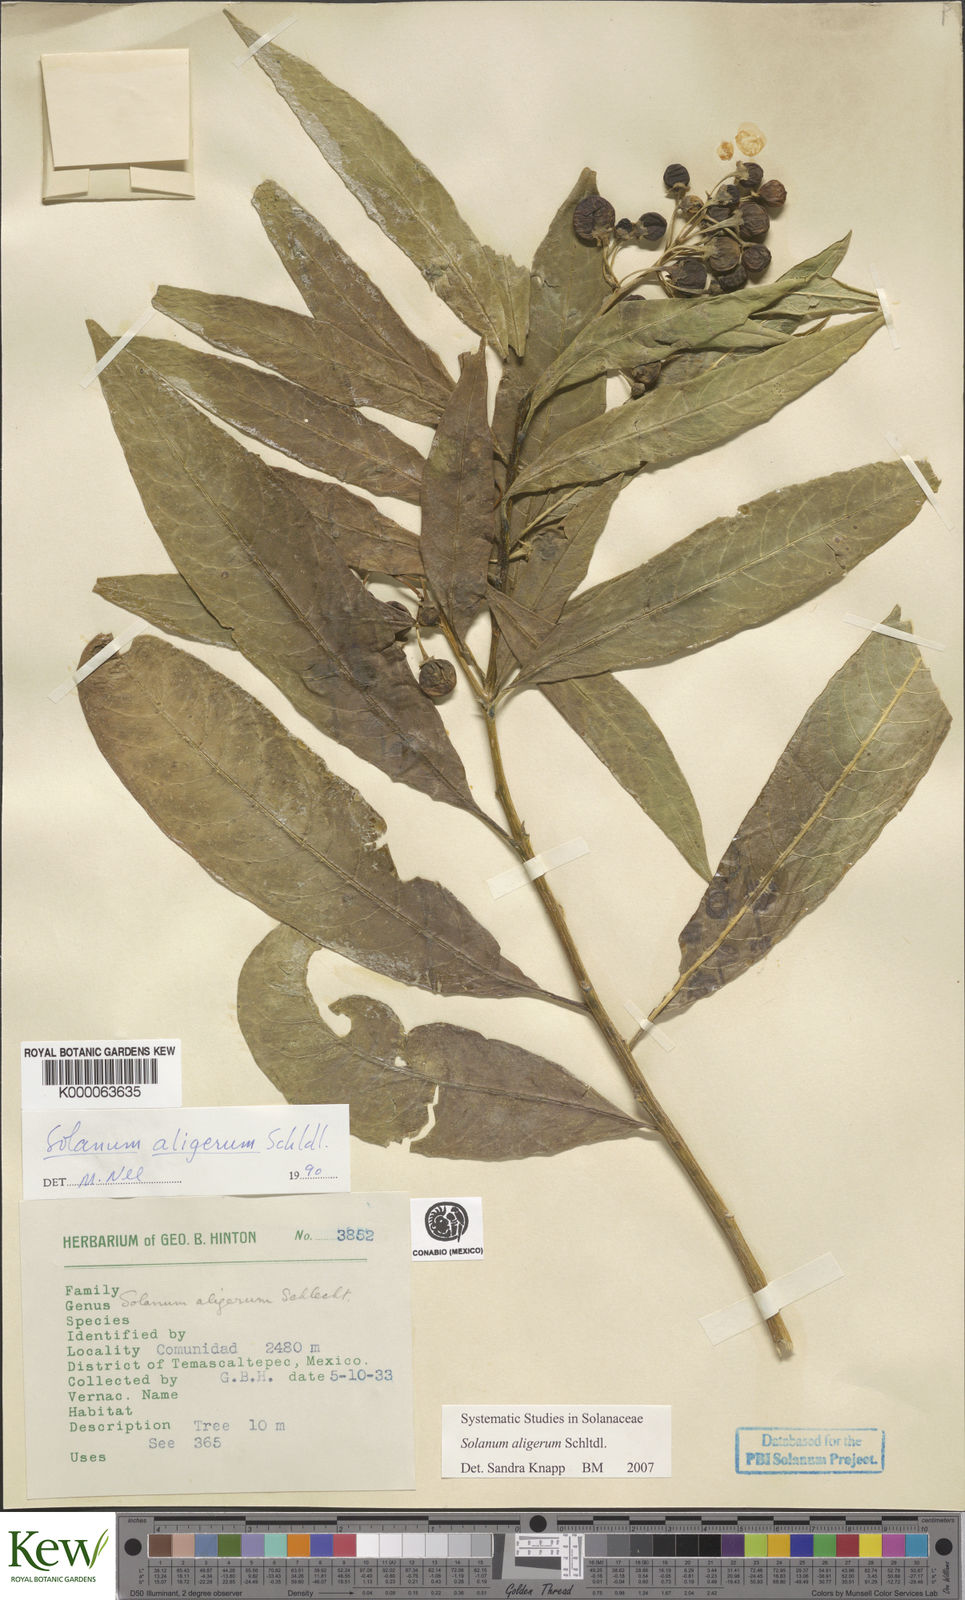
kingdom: Plantae
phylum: Tracheophyta
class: Magnoliopsida
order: Solanales
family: Solanaceae
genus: Solanum
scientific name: Solanum aligerum
